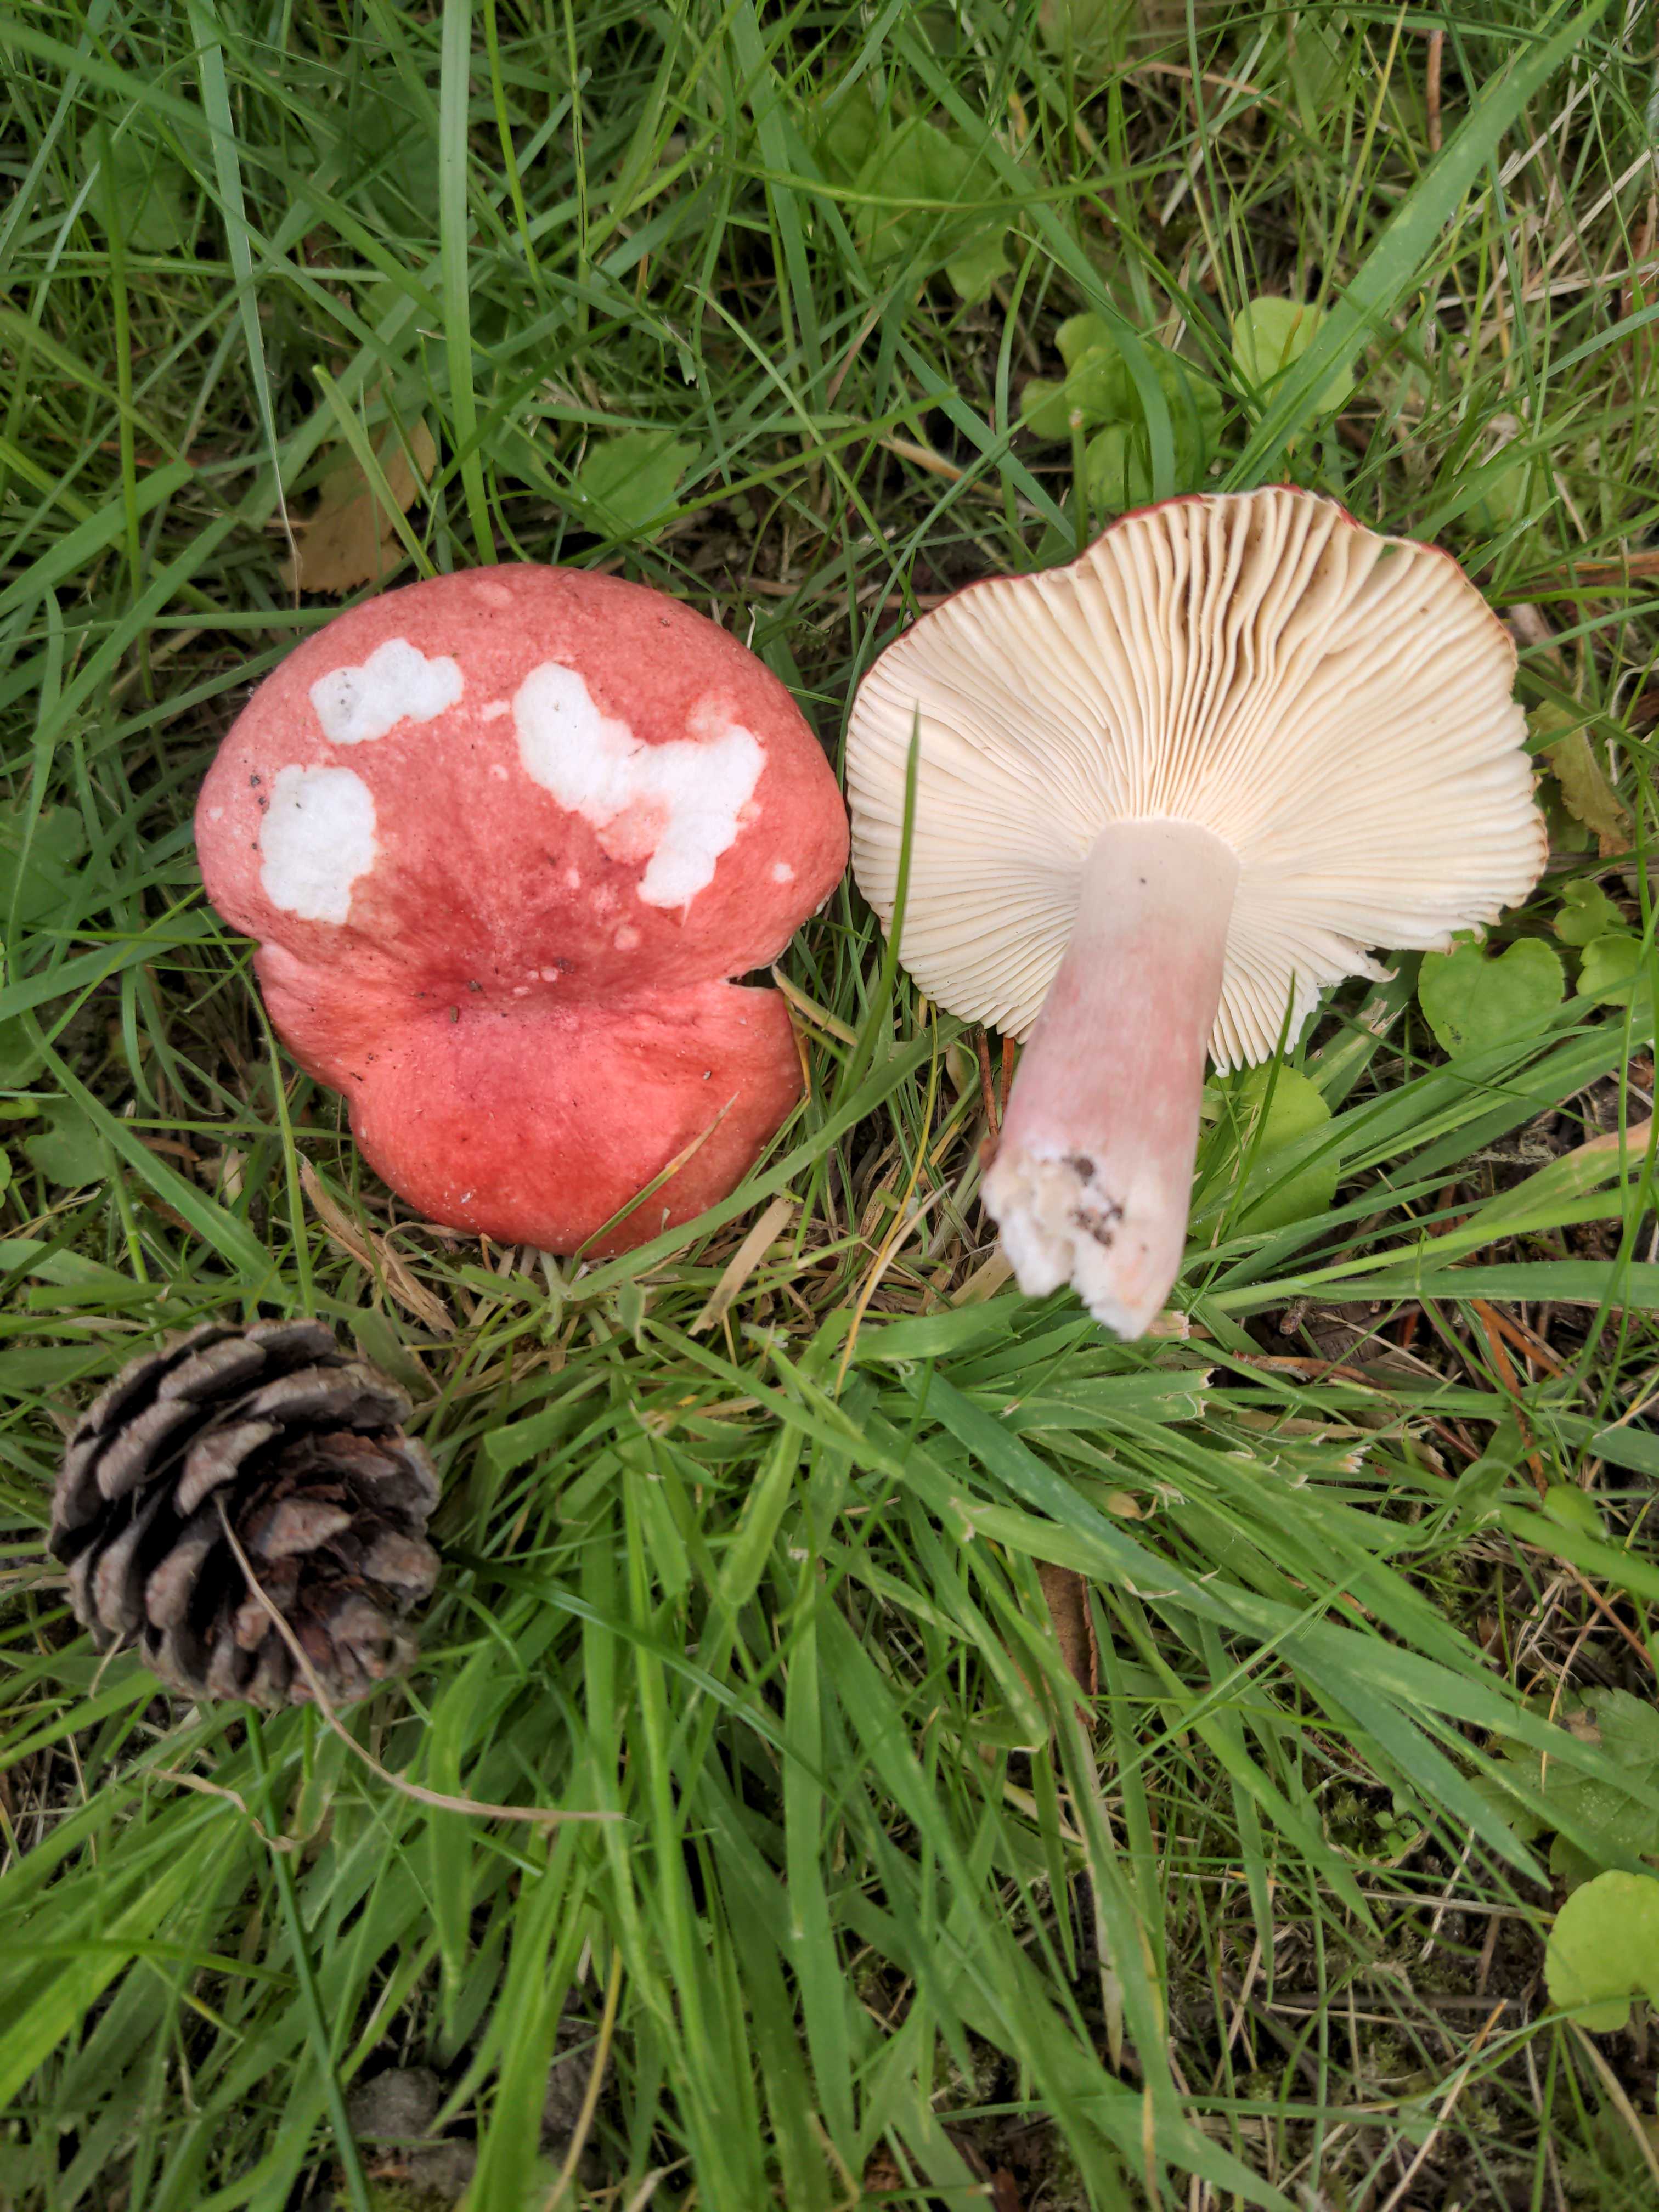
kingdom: Fungi
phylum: Basidiomycota
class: Agaricomycetes
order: Russulales
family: Russulaceae
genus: Russula
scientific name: Russula sanguinea
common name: blodrød skørhat
